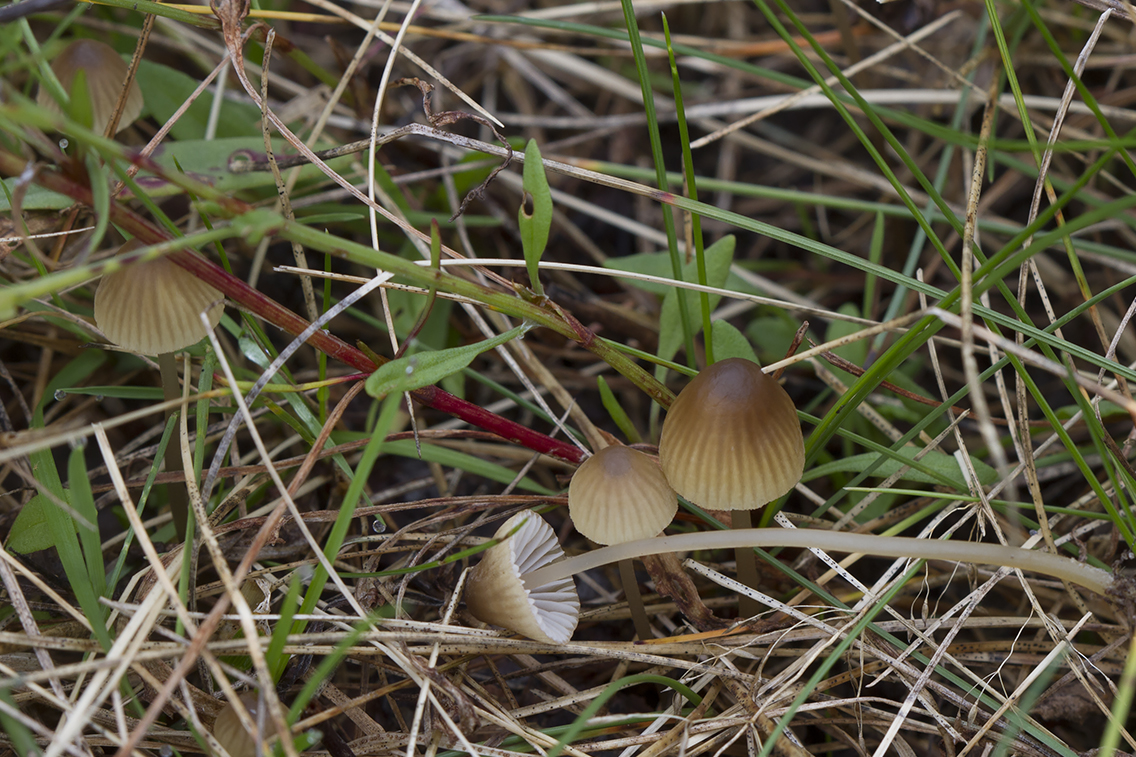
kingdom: Fungi
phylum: Basidiomycota
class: Agaricomycetes
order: Agaricales
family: Mycenaceae
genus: Mycena
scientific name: Mycena olivaceomarginata
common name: brunægget huesvamp
